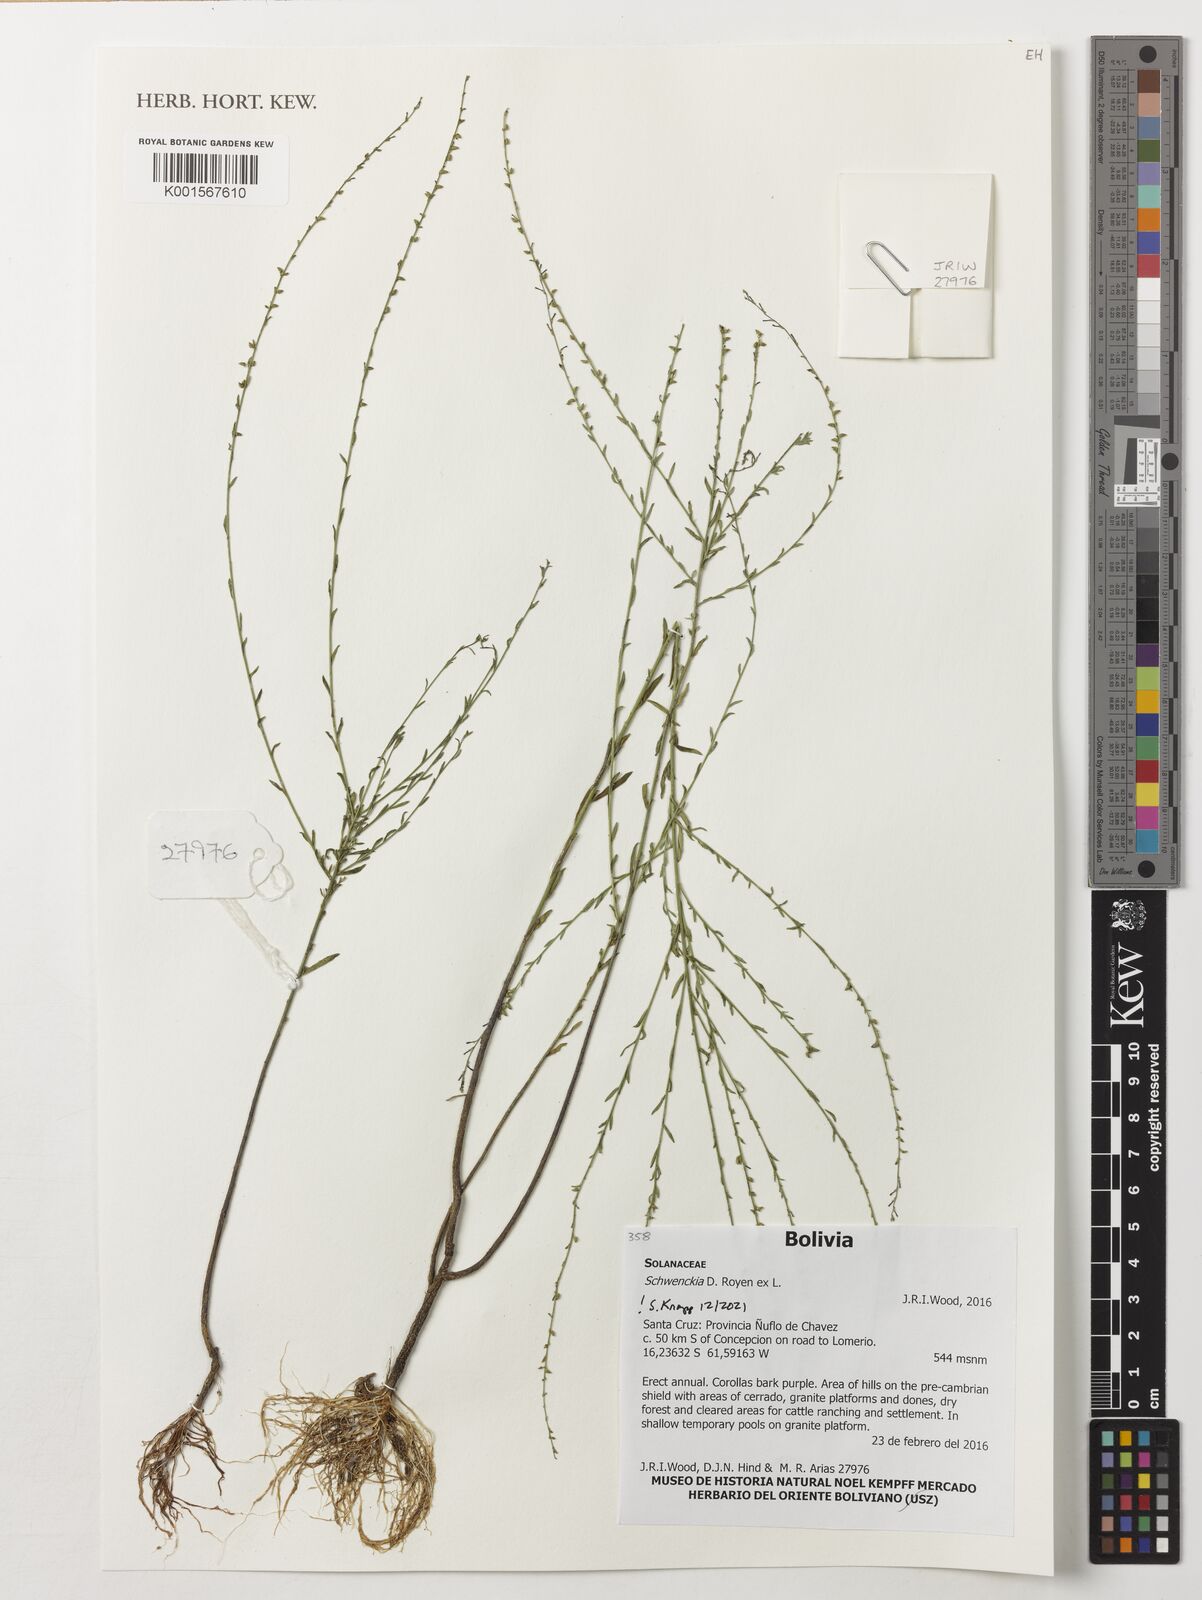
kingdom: Plantae
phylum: Tracheophyta
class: Magnoliopsida
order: Solanales
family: Solanaceae
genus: Schwenckia
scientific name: Schwenckia
